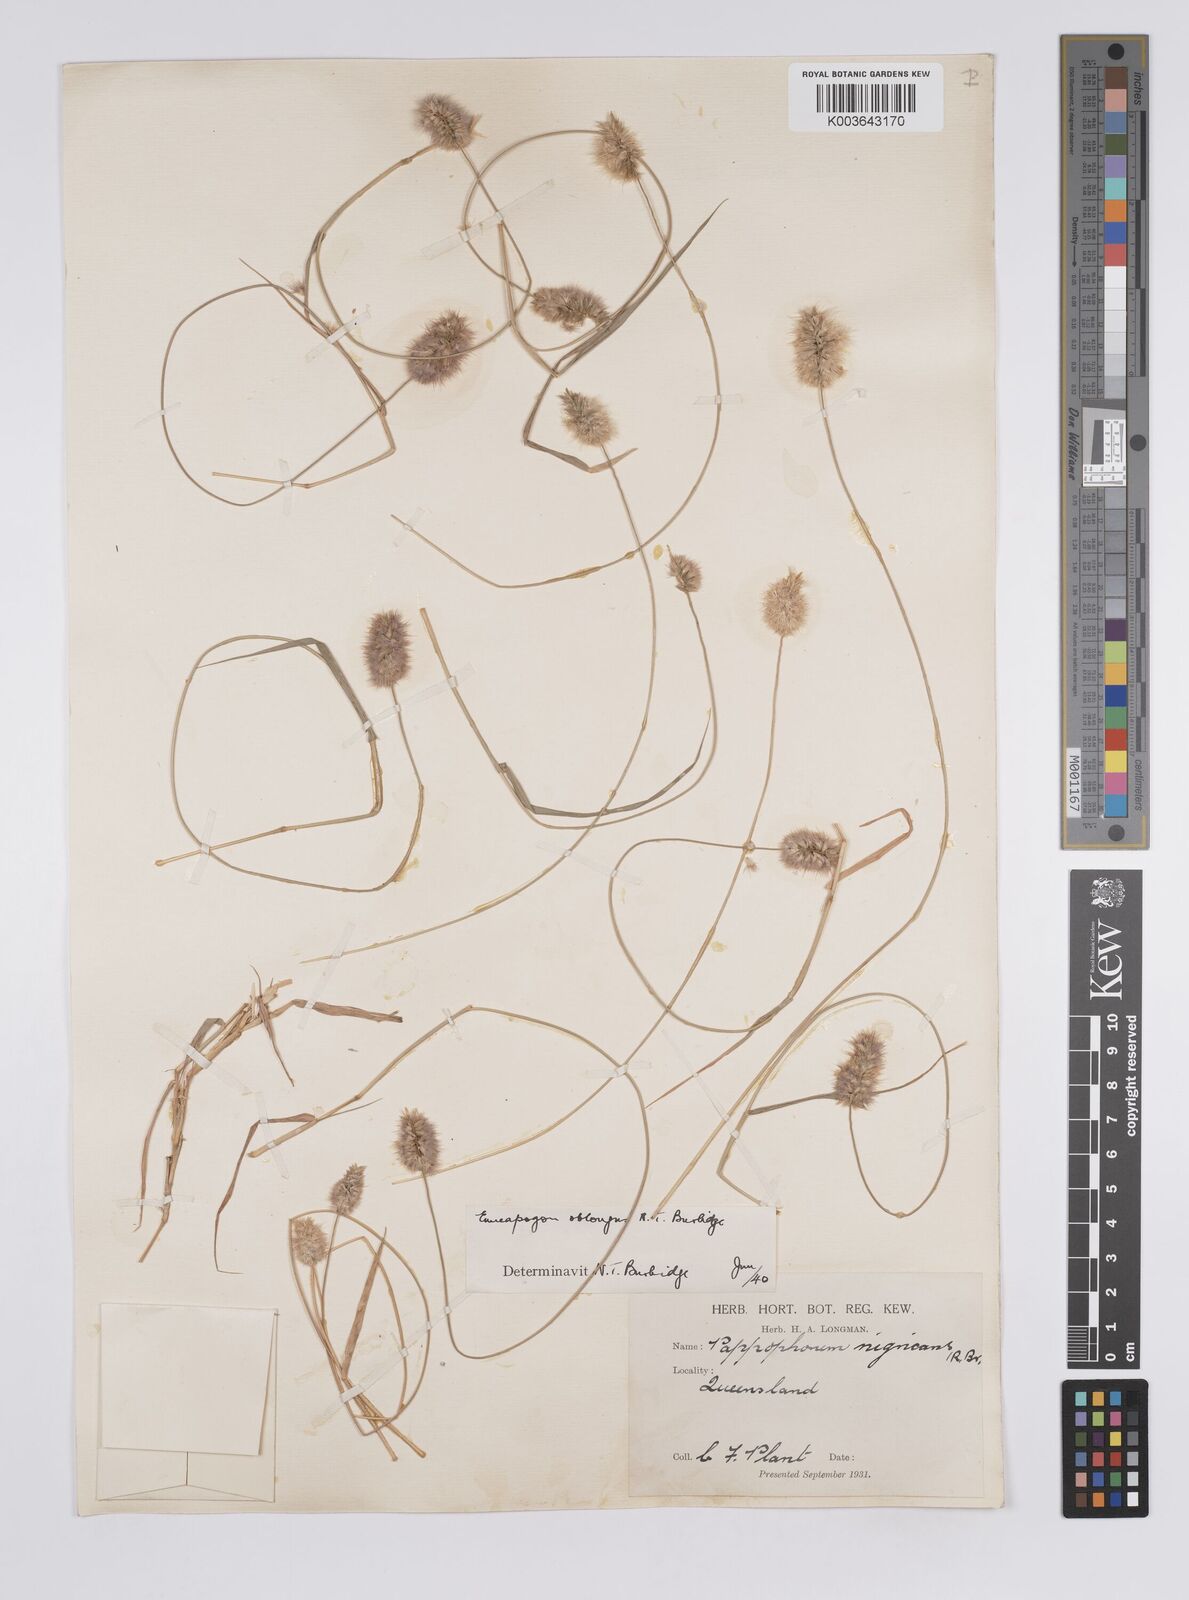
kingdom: Plantae
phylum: Tracheophyta
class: Liliopsida
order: Poales
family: Poaceae
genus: Enneapogon
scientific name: Enneapogon lindleyanus
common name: Conetop nineawn
